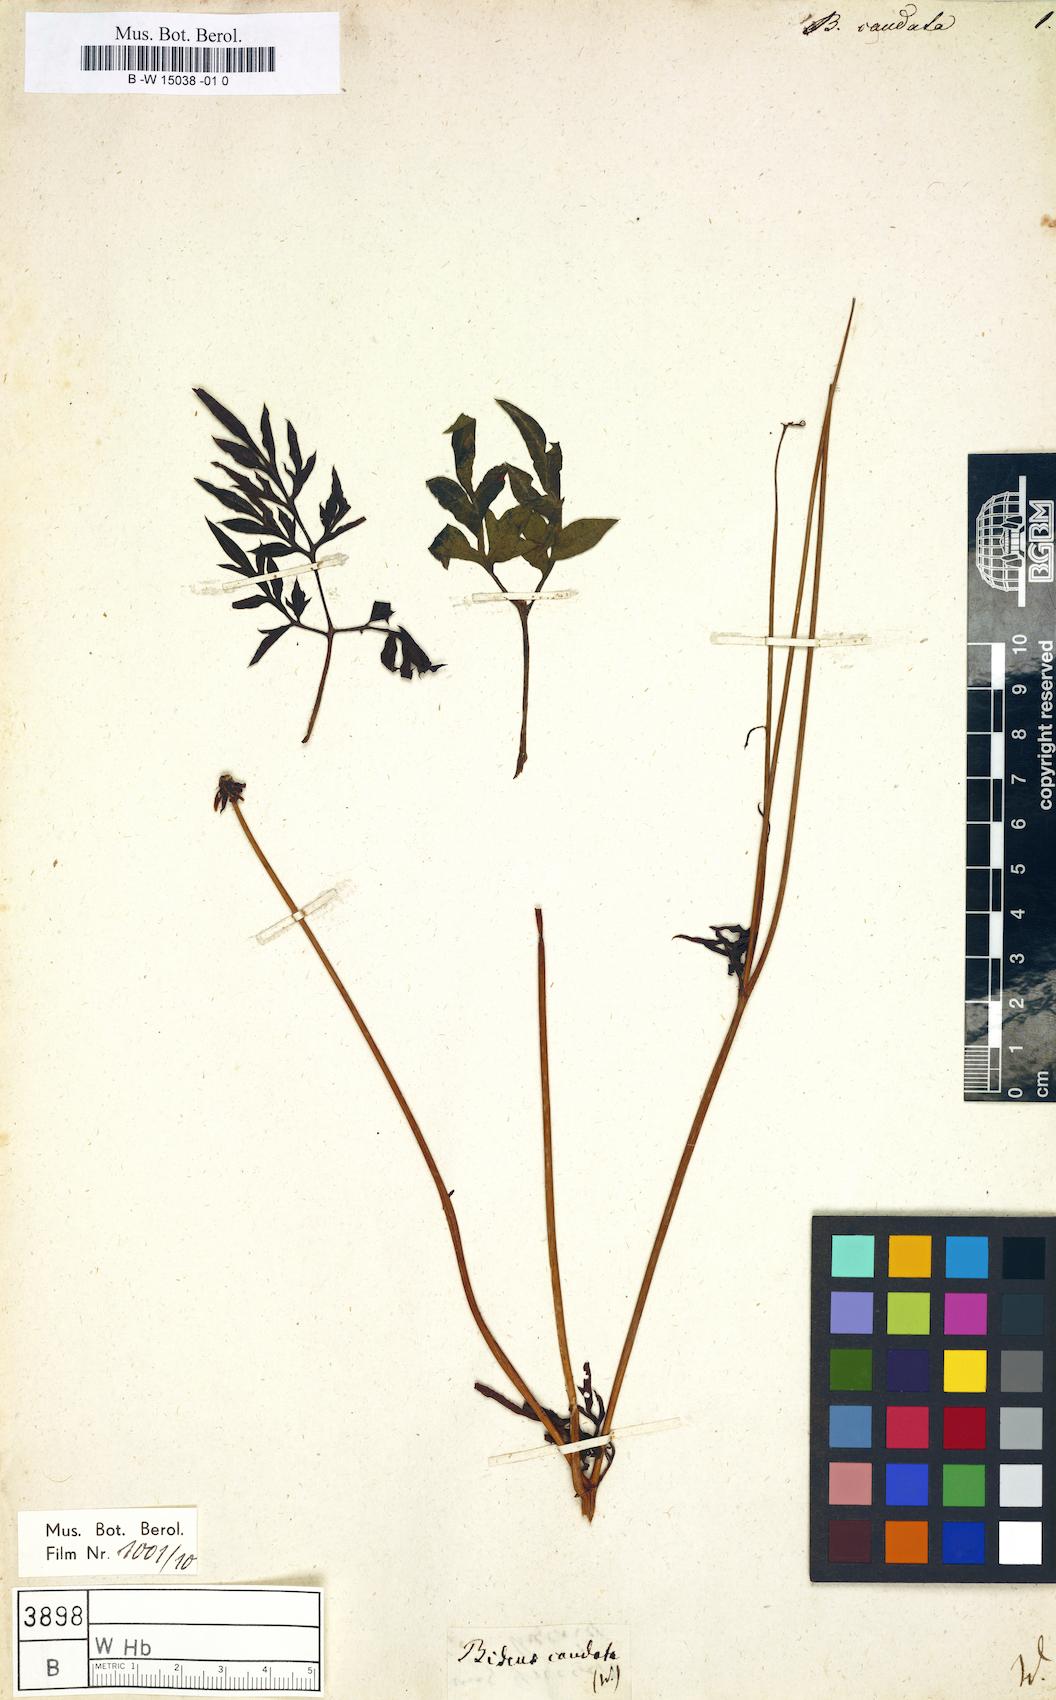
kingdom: Plantae
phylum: Tracheophyta
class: Magnoliopsida
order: Asterales
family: Asteraceae
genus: Cosmos
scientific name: Cosmos caudatus
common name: Wild cosmos
